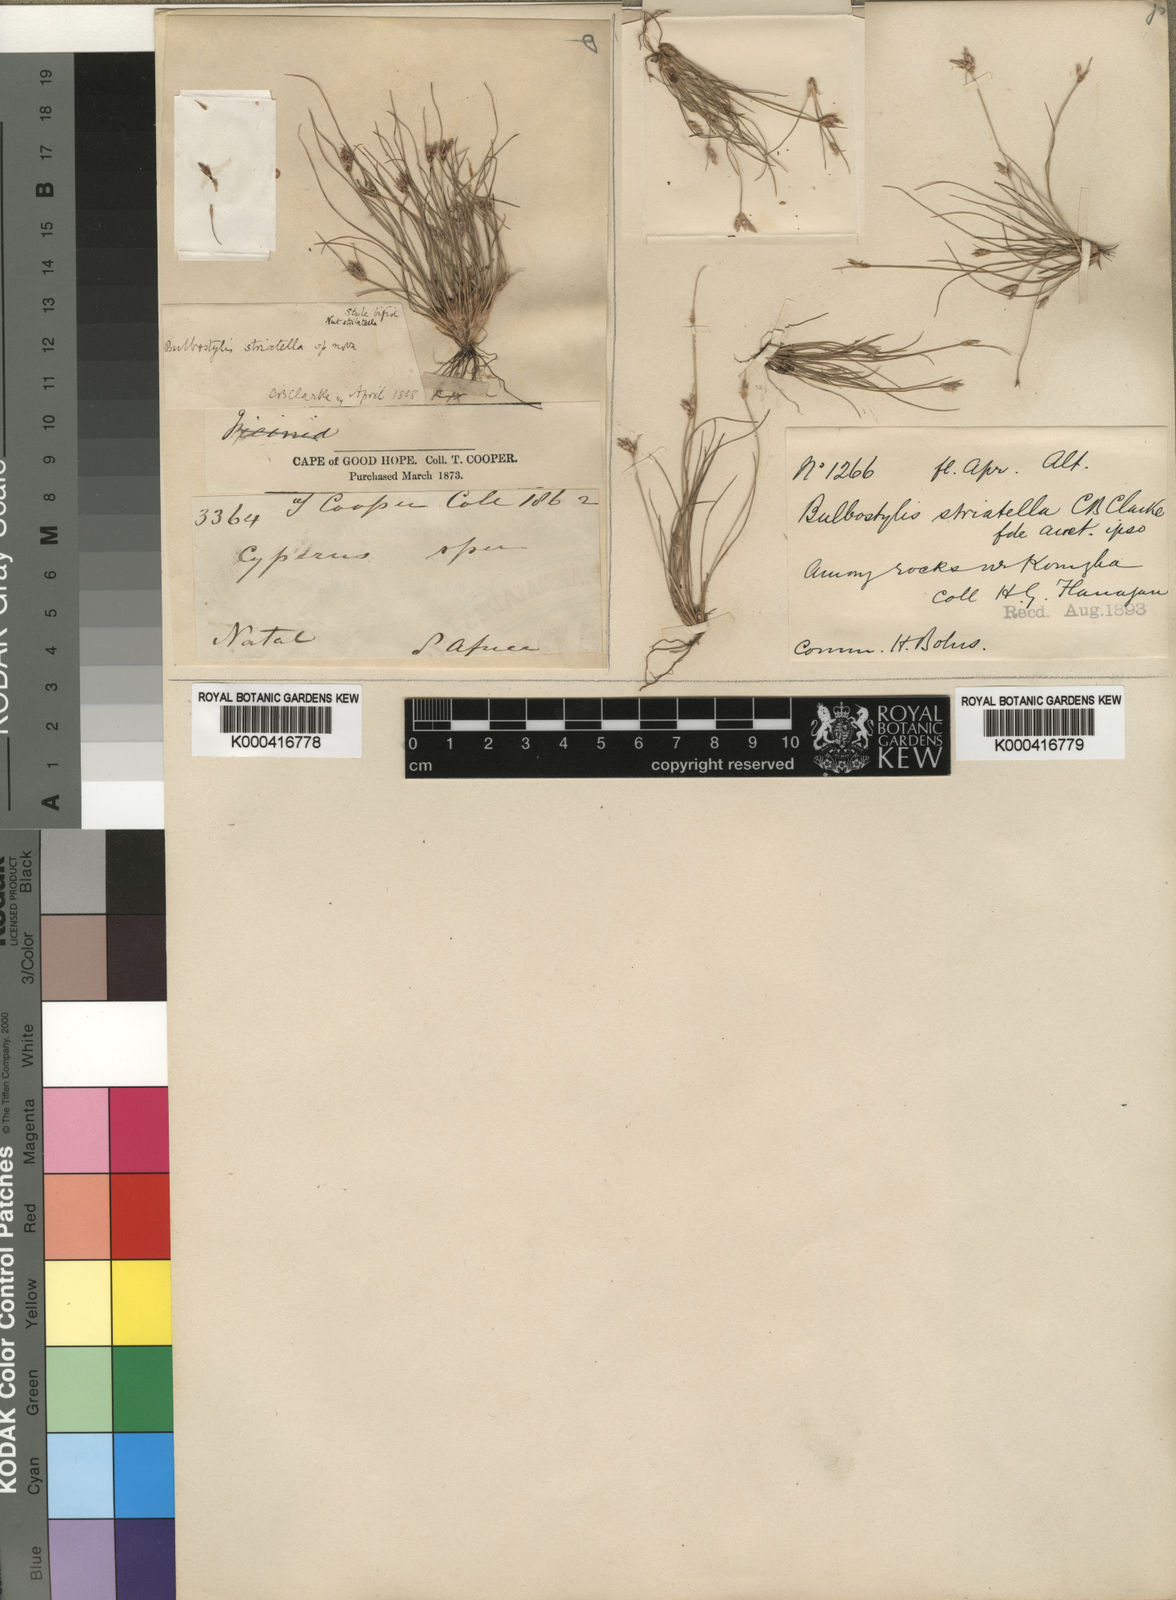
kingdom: Plantae
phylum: Tracheophyta
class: Liliopsida
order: Poales
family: Cyperaceae
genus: Bulbostylis
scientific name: Bulbostylis humilis
